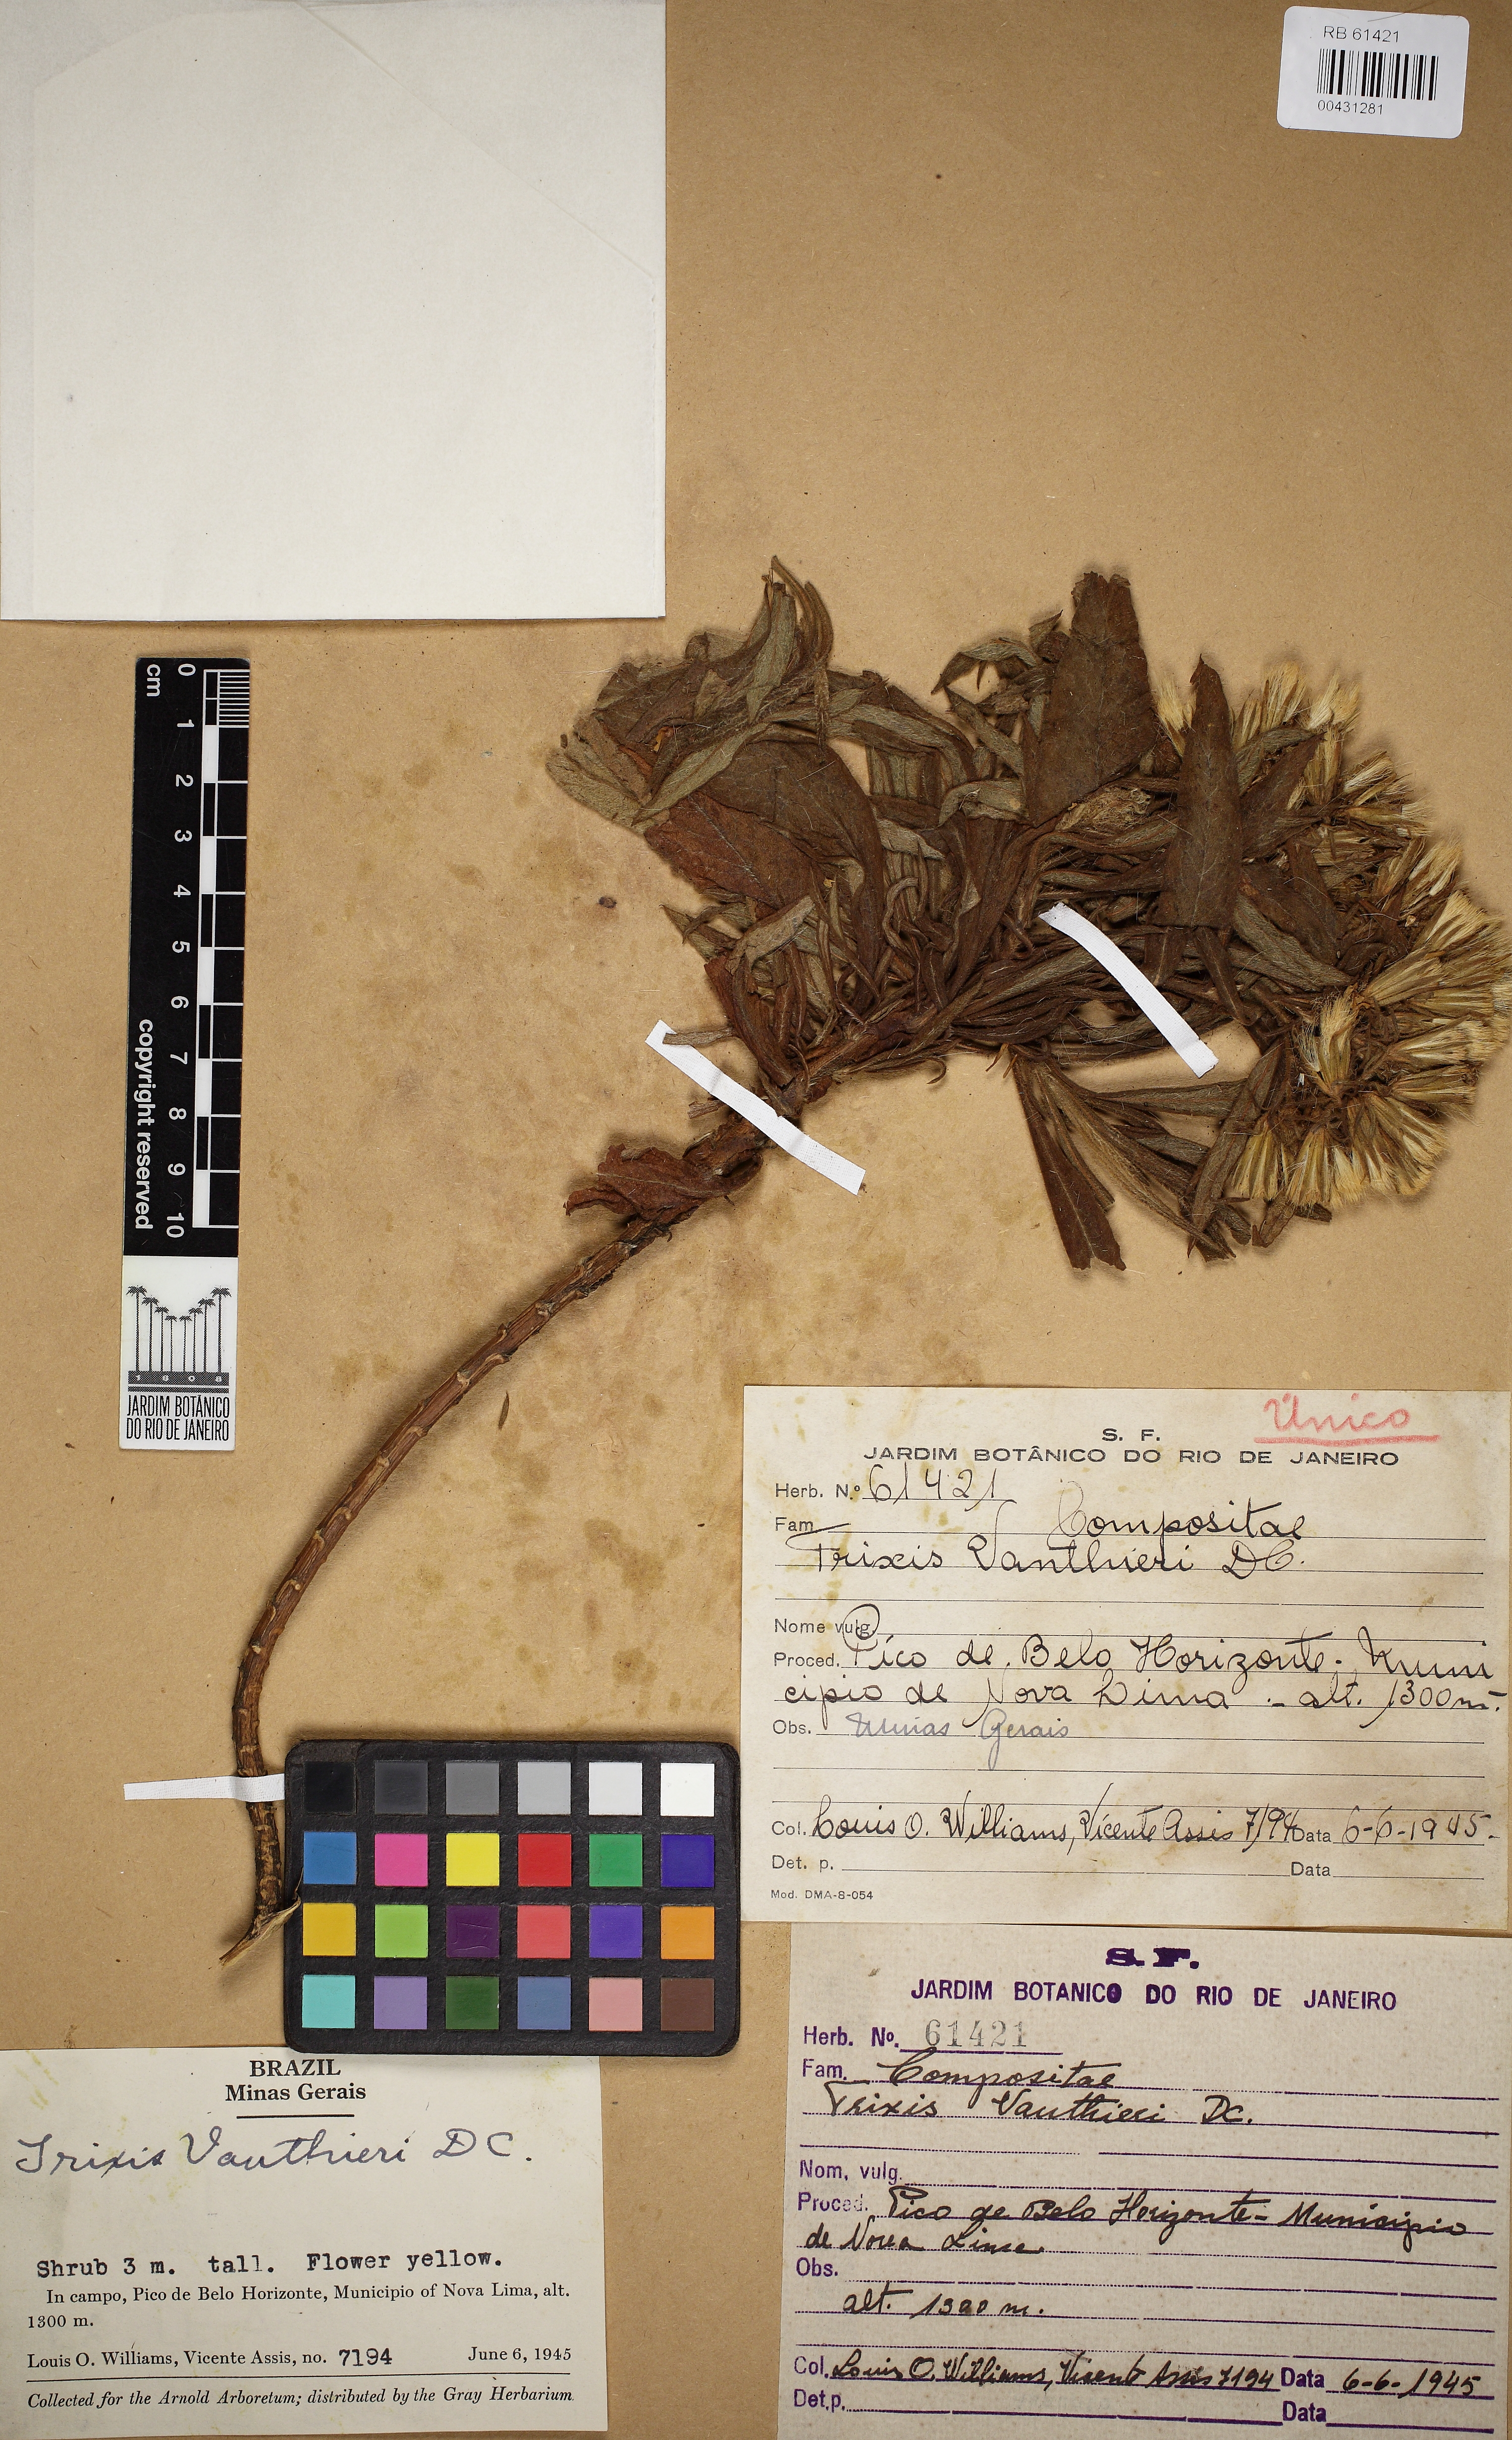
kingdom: Plantae
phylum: Tracheophyta
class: Magnoliopsida
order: Asterales
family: Asteraceae
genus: Trixis
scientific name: Trixis vauthieri
